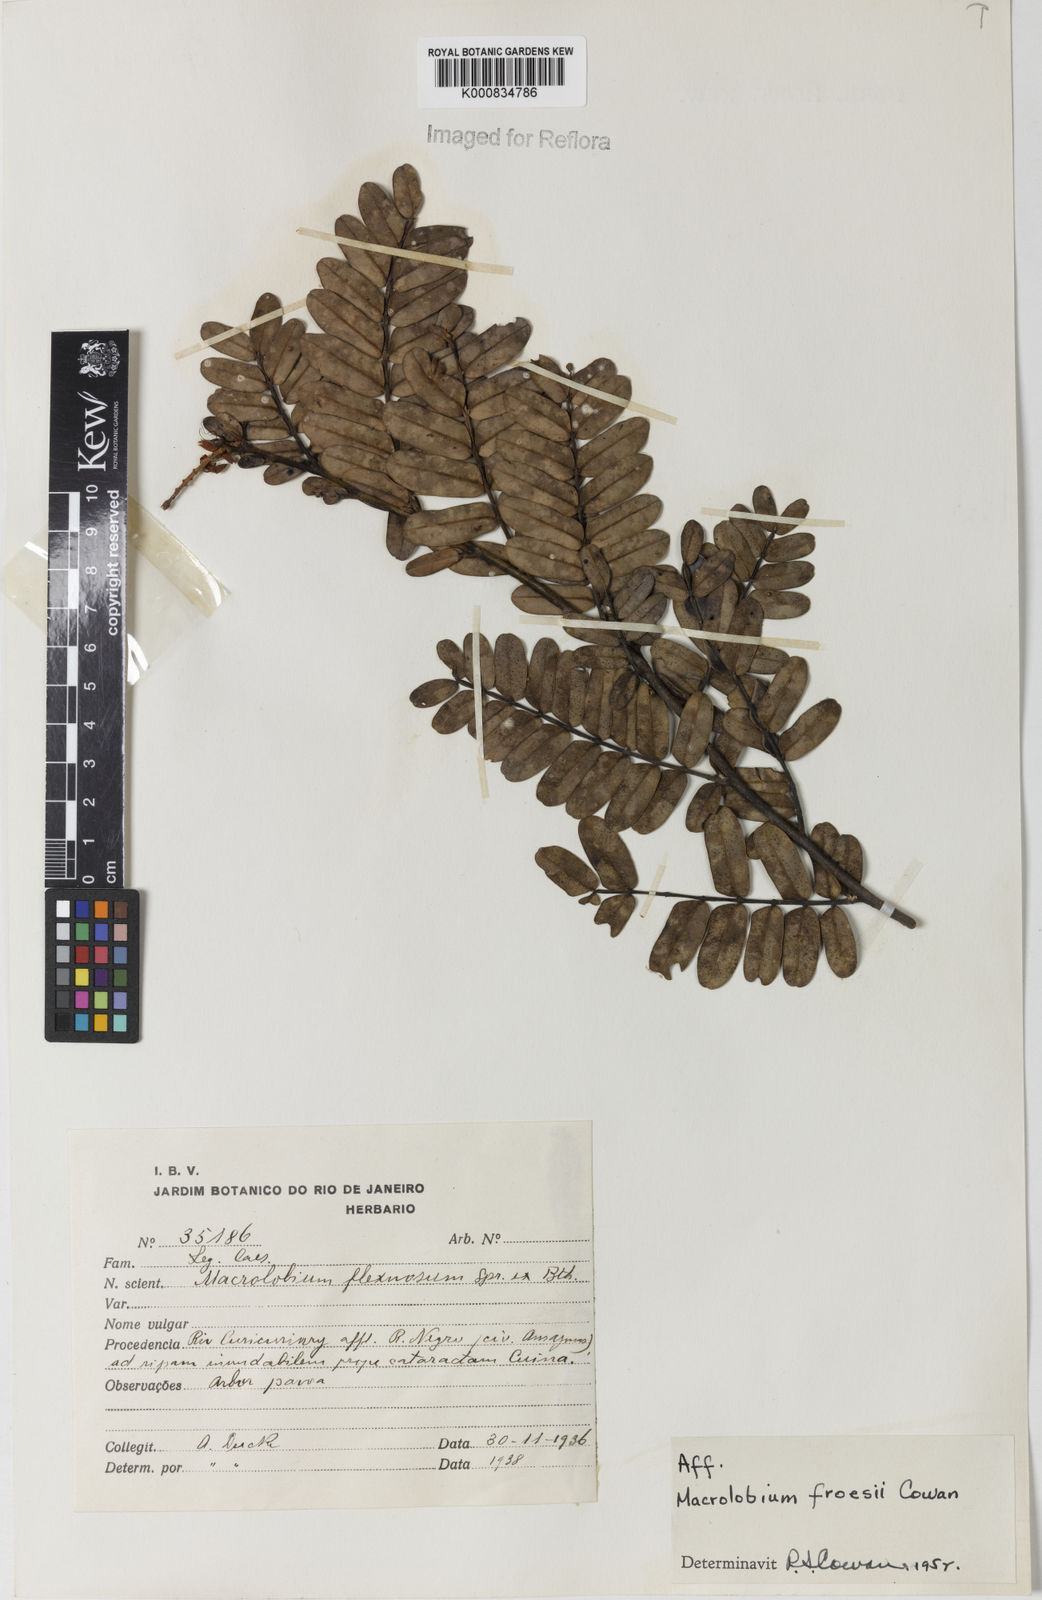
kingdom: Plantae
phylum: Tracheophyta
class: Magnoliopsida
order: Fabales
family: Fabaceae
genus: Macrolobium
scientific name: Macrolobium froesii
